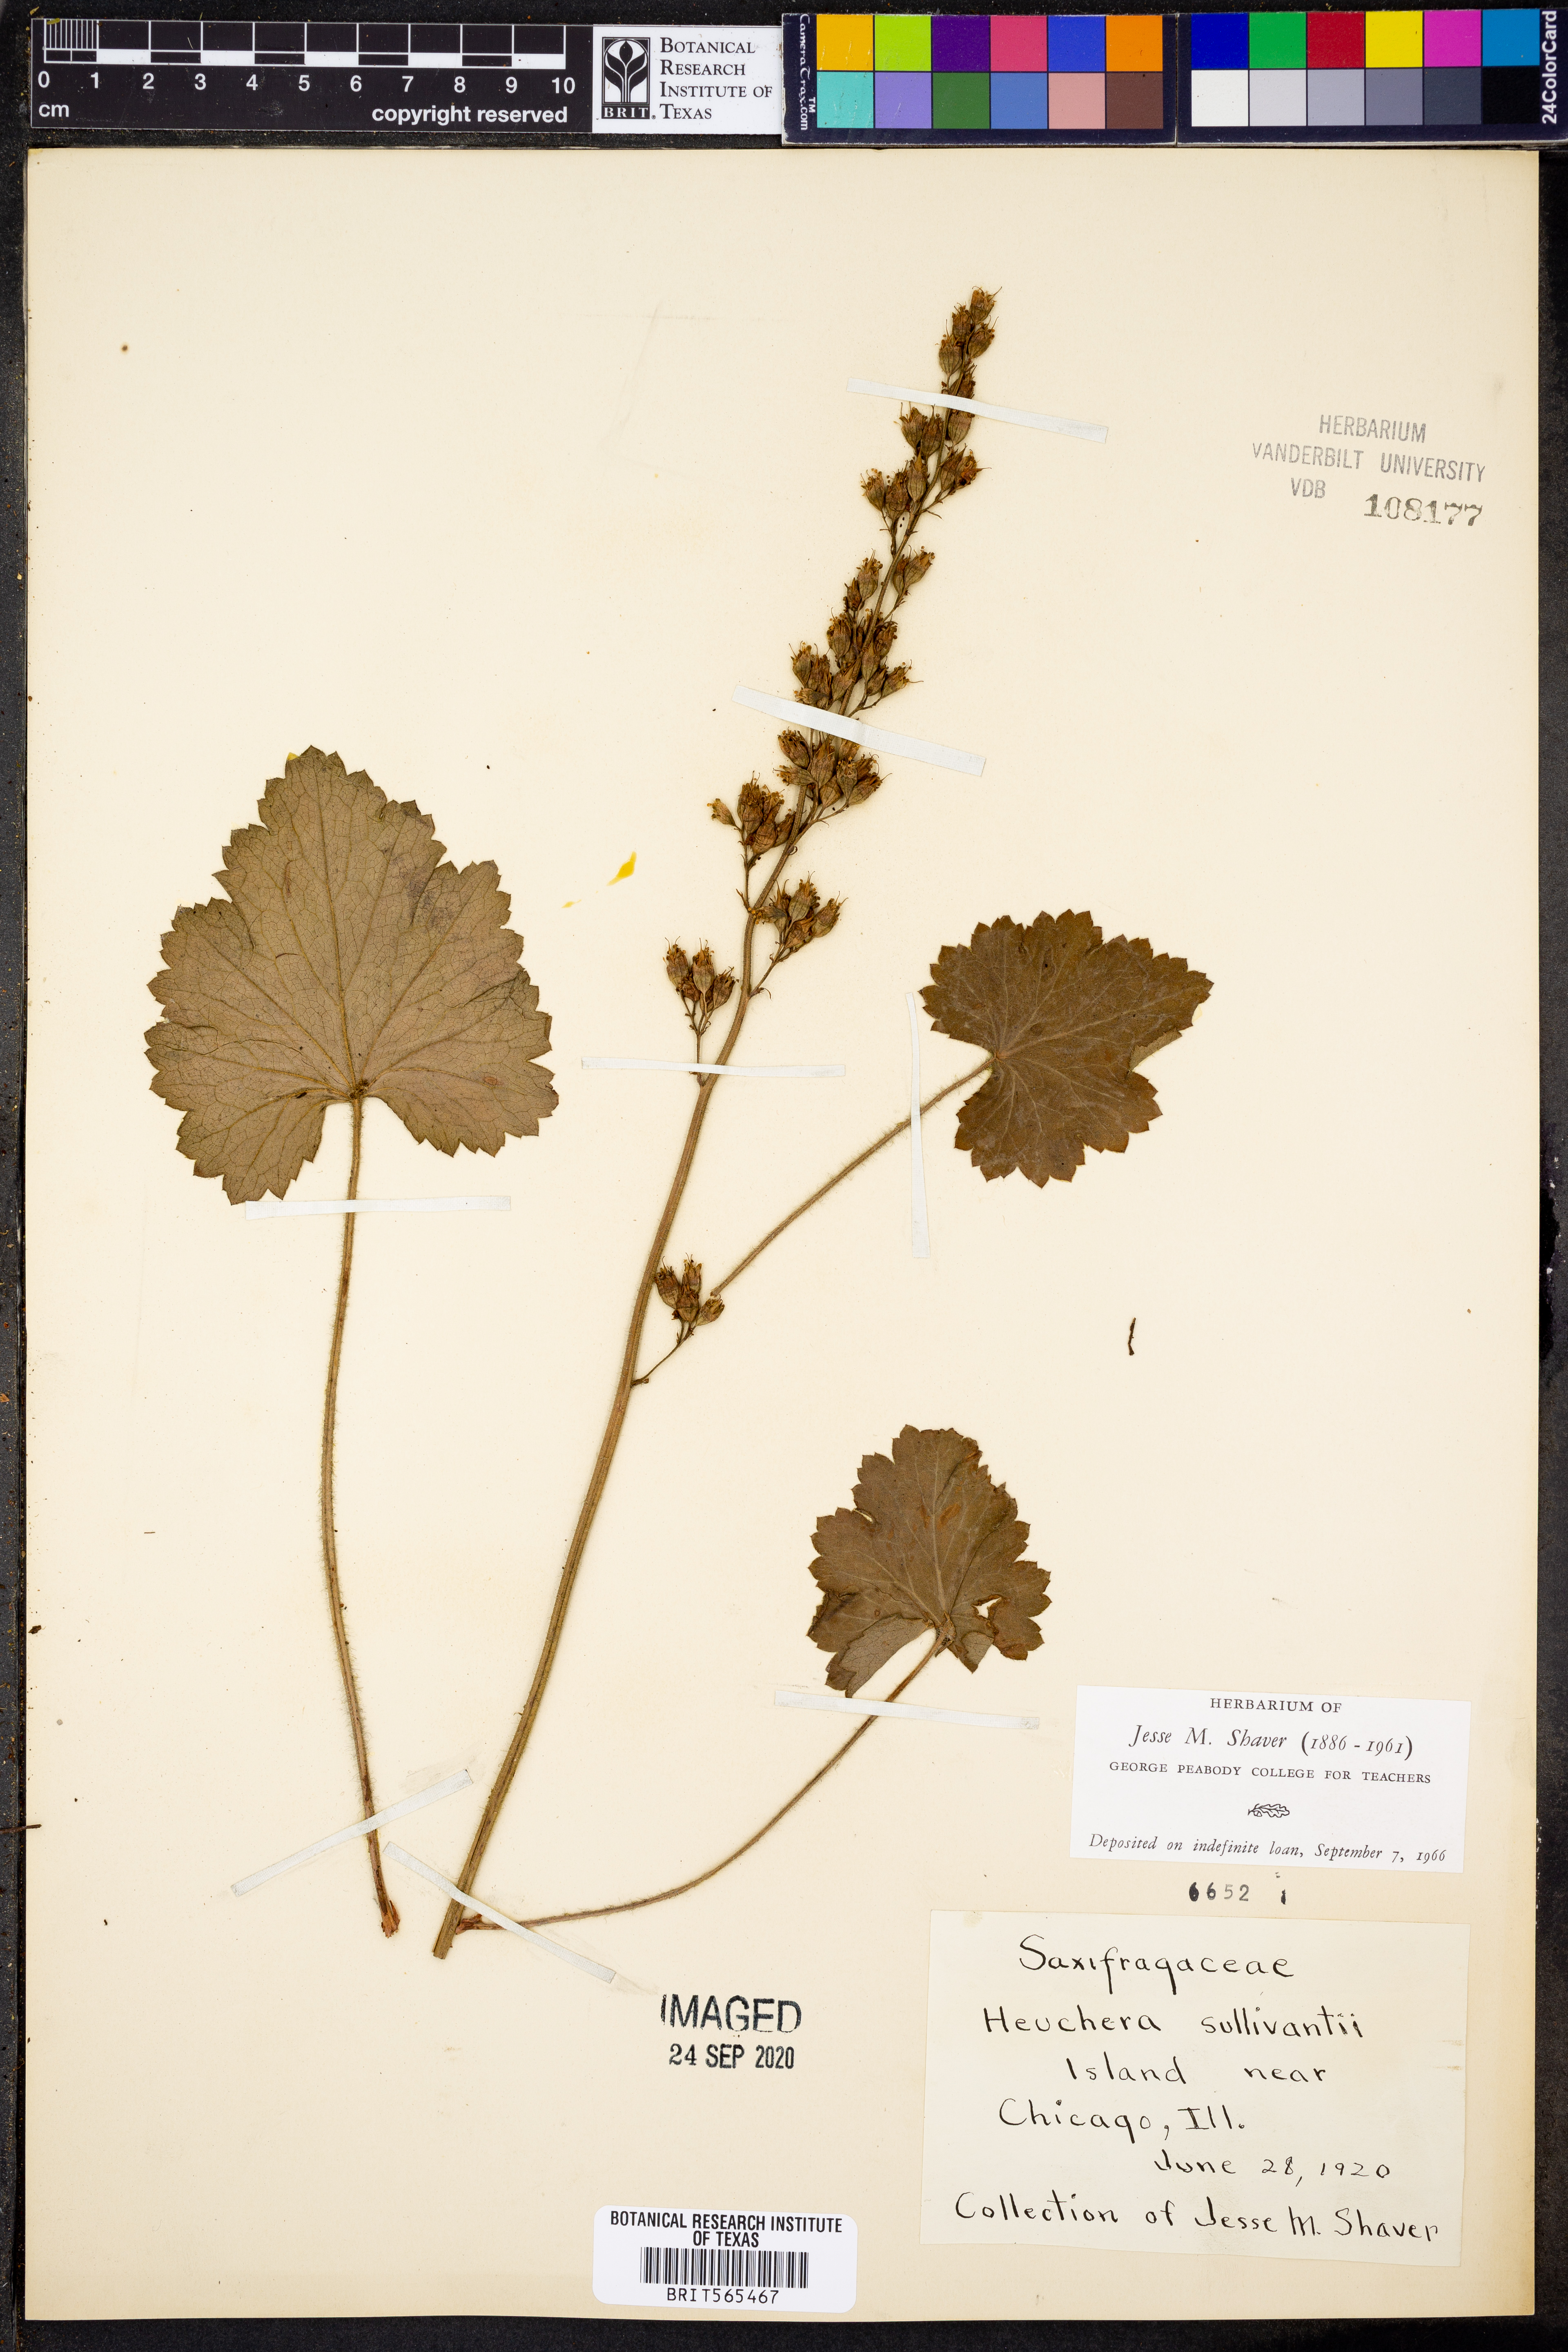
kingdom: Plantae
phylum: Tracheophyta
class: Magnoliopsida
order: Saxifragales
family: Saxifragaceae
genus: Heuchera
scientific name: Heuchera
